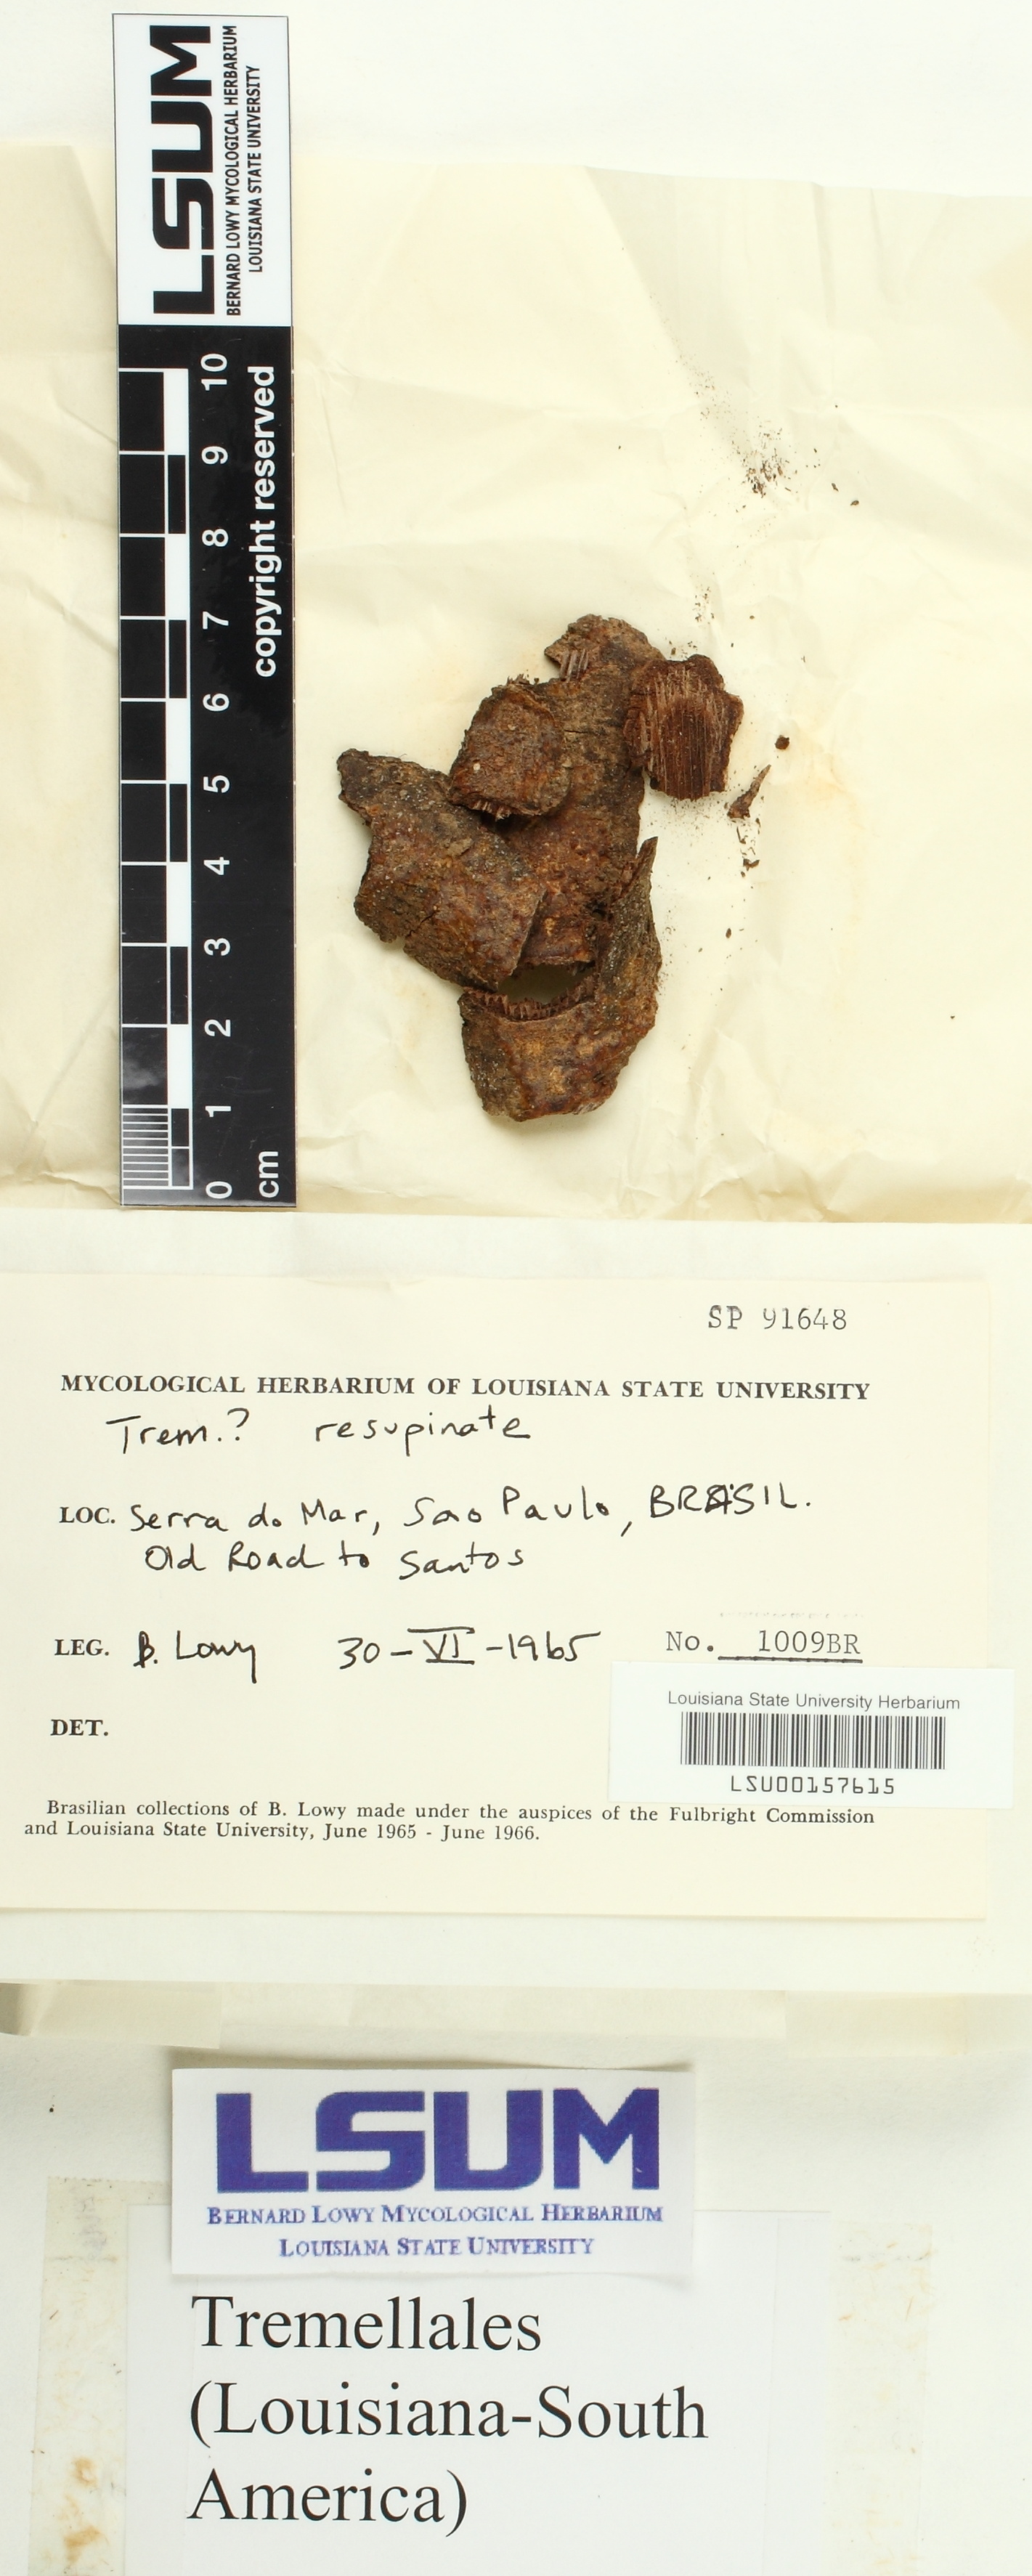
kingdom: Fungi
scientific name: Fungi
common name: Fungi
